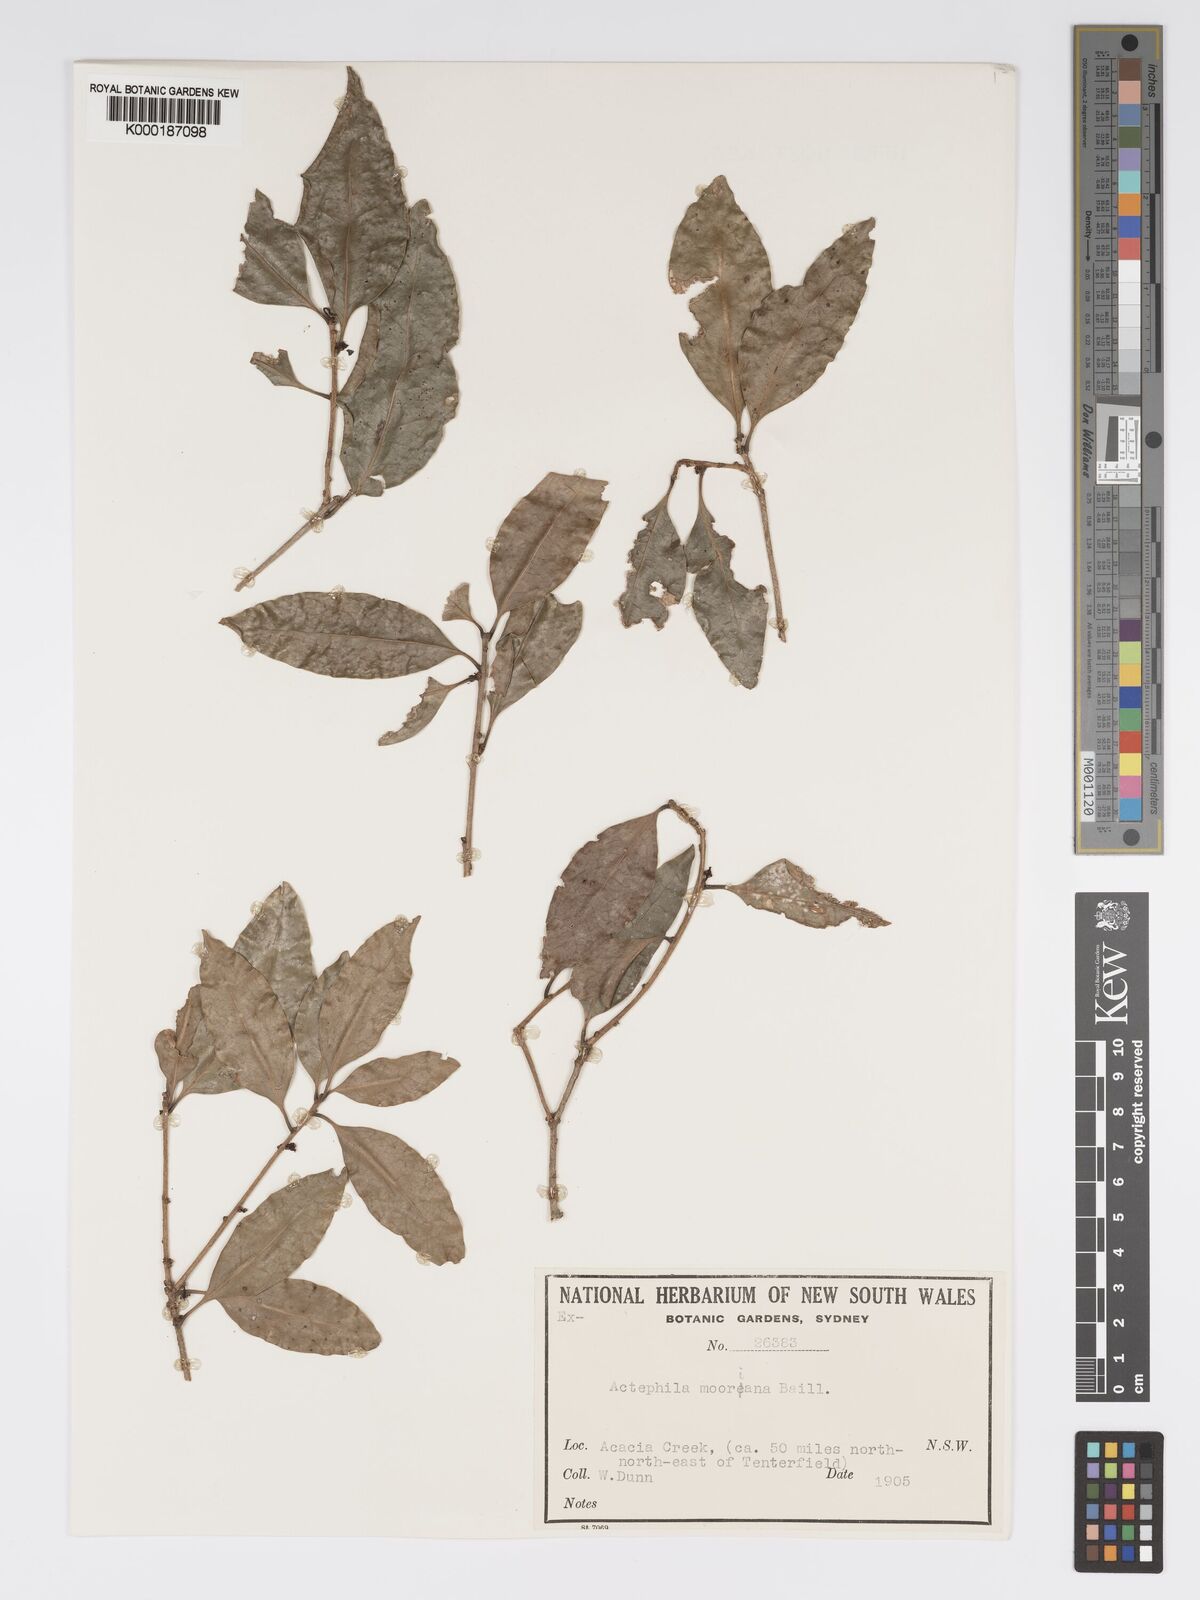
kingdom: Plantae
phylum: Tracheophyta
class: Magnoliopsida
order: Malpighiales
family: Phyllanthaceae
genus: Actephila
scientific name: Actephila lindleyi
